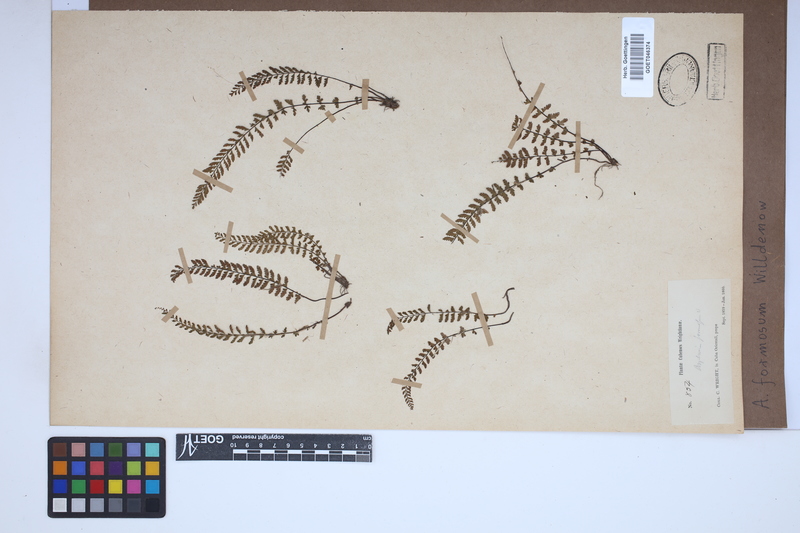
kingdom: Plantae
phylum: Tracheophyta
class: Polypodiopsida
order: Polypodiales
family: Aspleniaceae
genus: Asplenium
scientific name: Asplenium formosum
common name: Showy spleenwort
